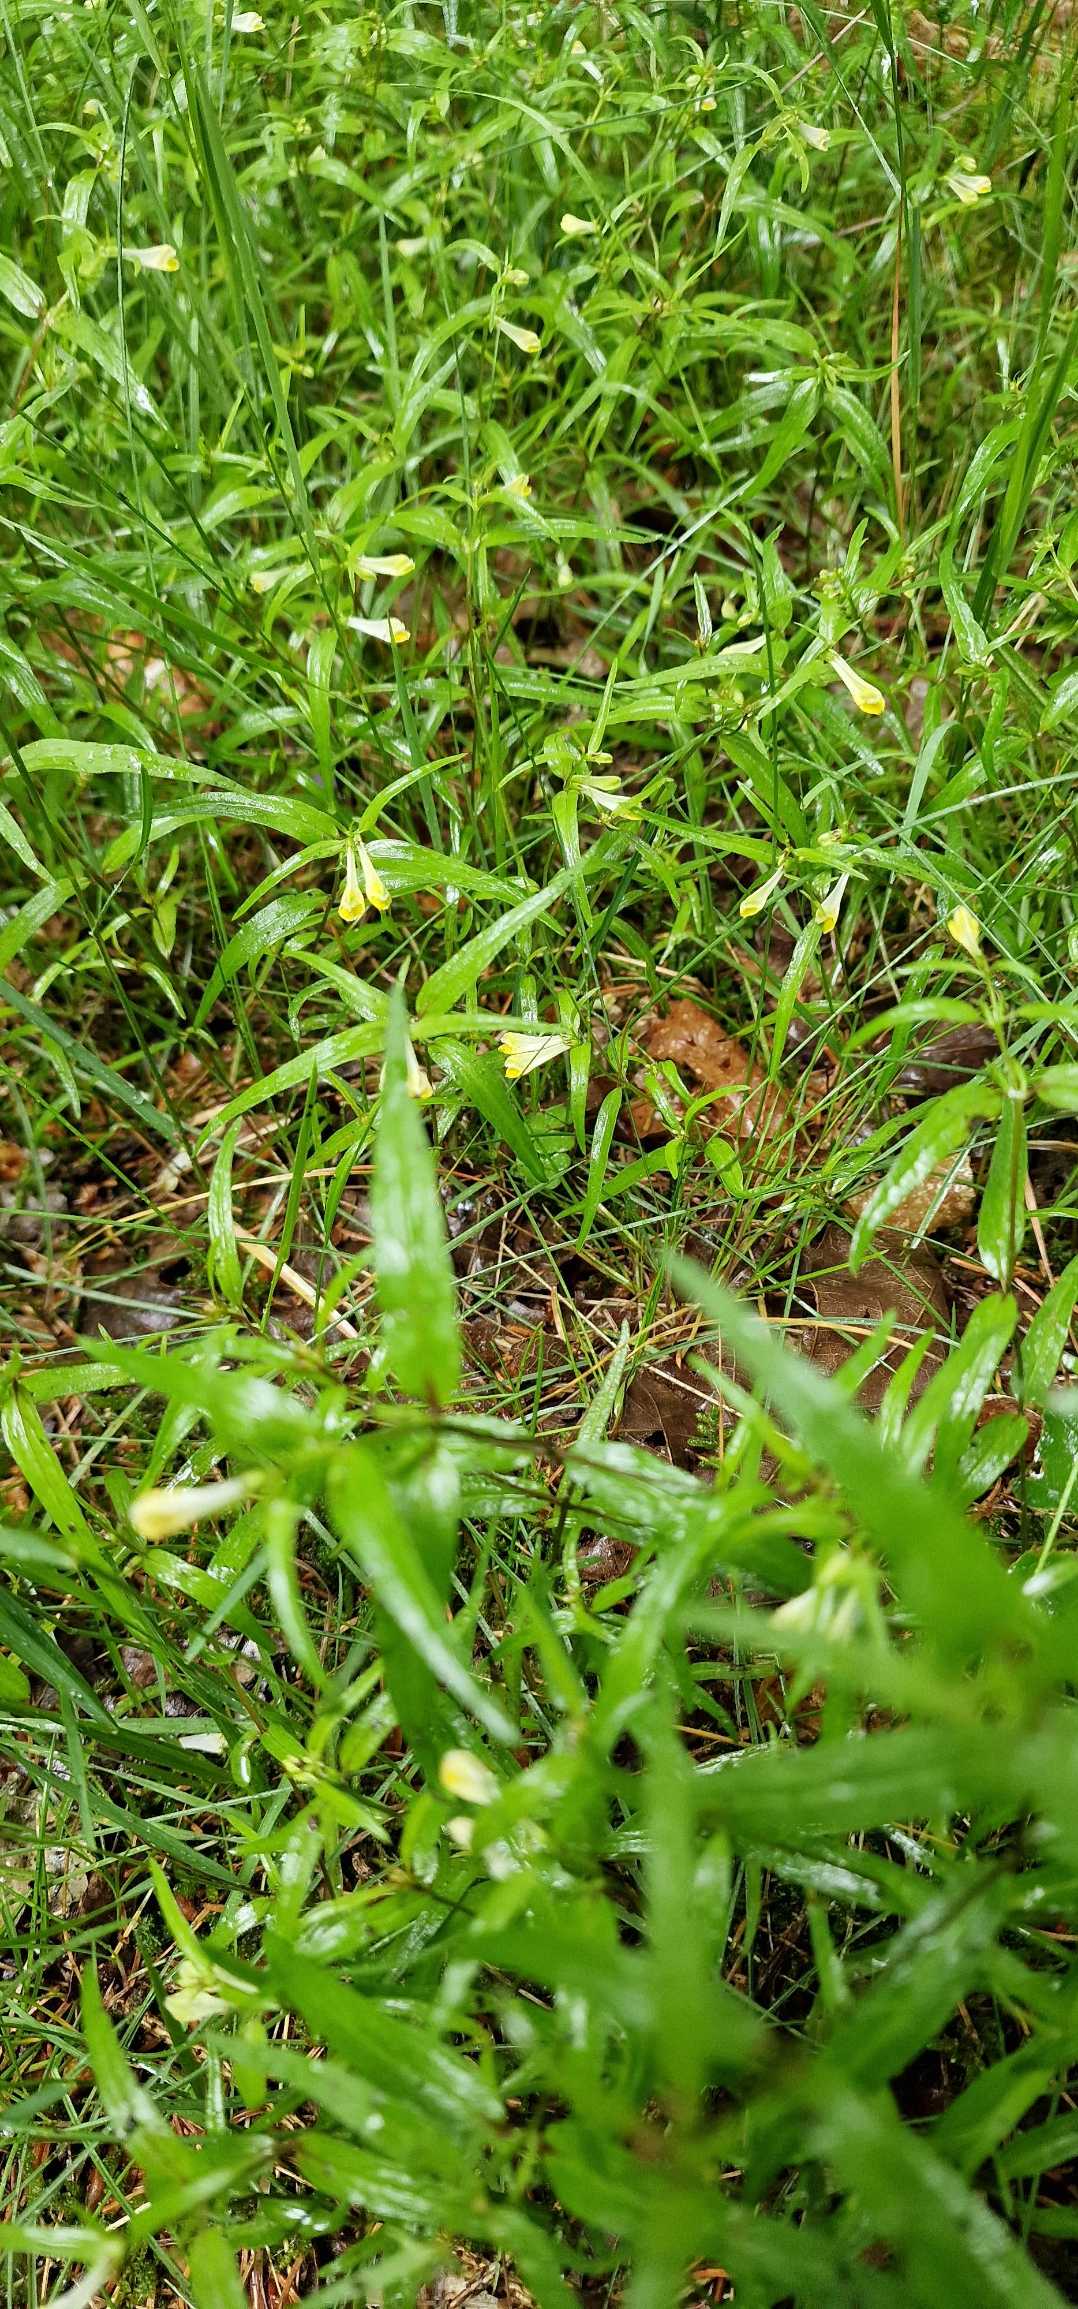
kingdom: Plantae
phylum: Tracheophyta
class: Magnoliopsida
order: Lamiales
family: Orobanchaceae
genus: Melampyrum
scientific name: Melampyrum pratense
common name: Almindelig kohvede
